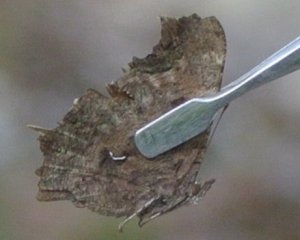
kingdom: Animalia
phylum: Arthropoda
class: Insecta
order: Lepidoptera
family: Nymphalidae
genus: Polygonia
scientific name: Polygonia progne
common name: Gray Comma
